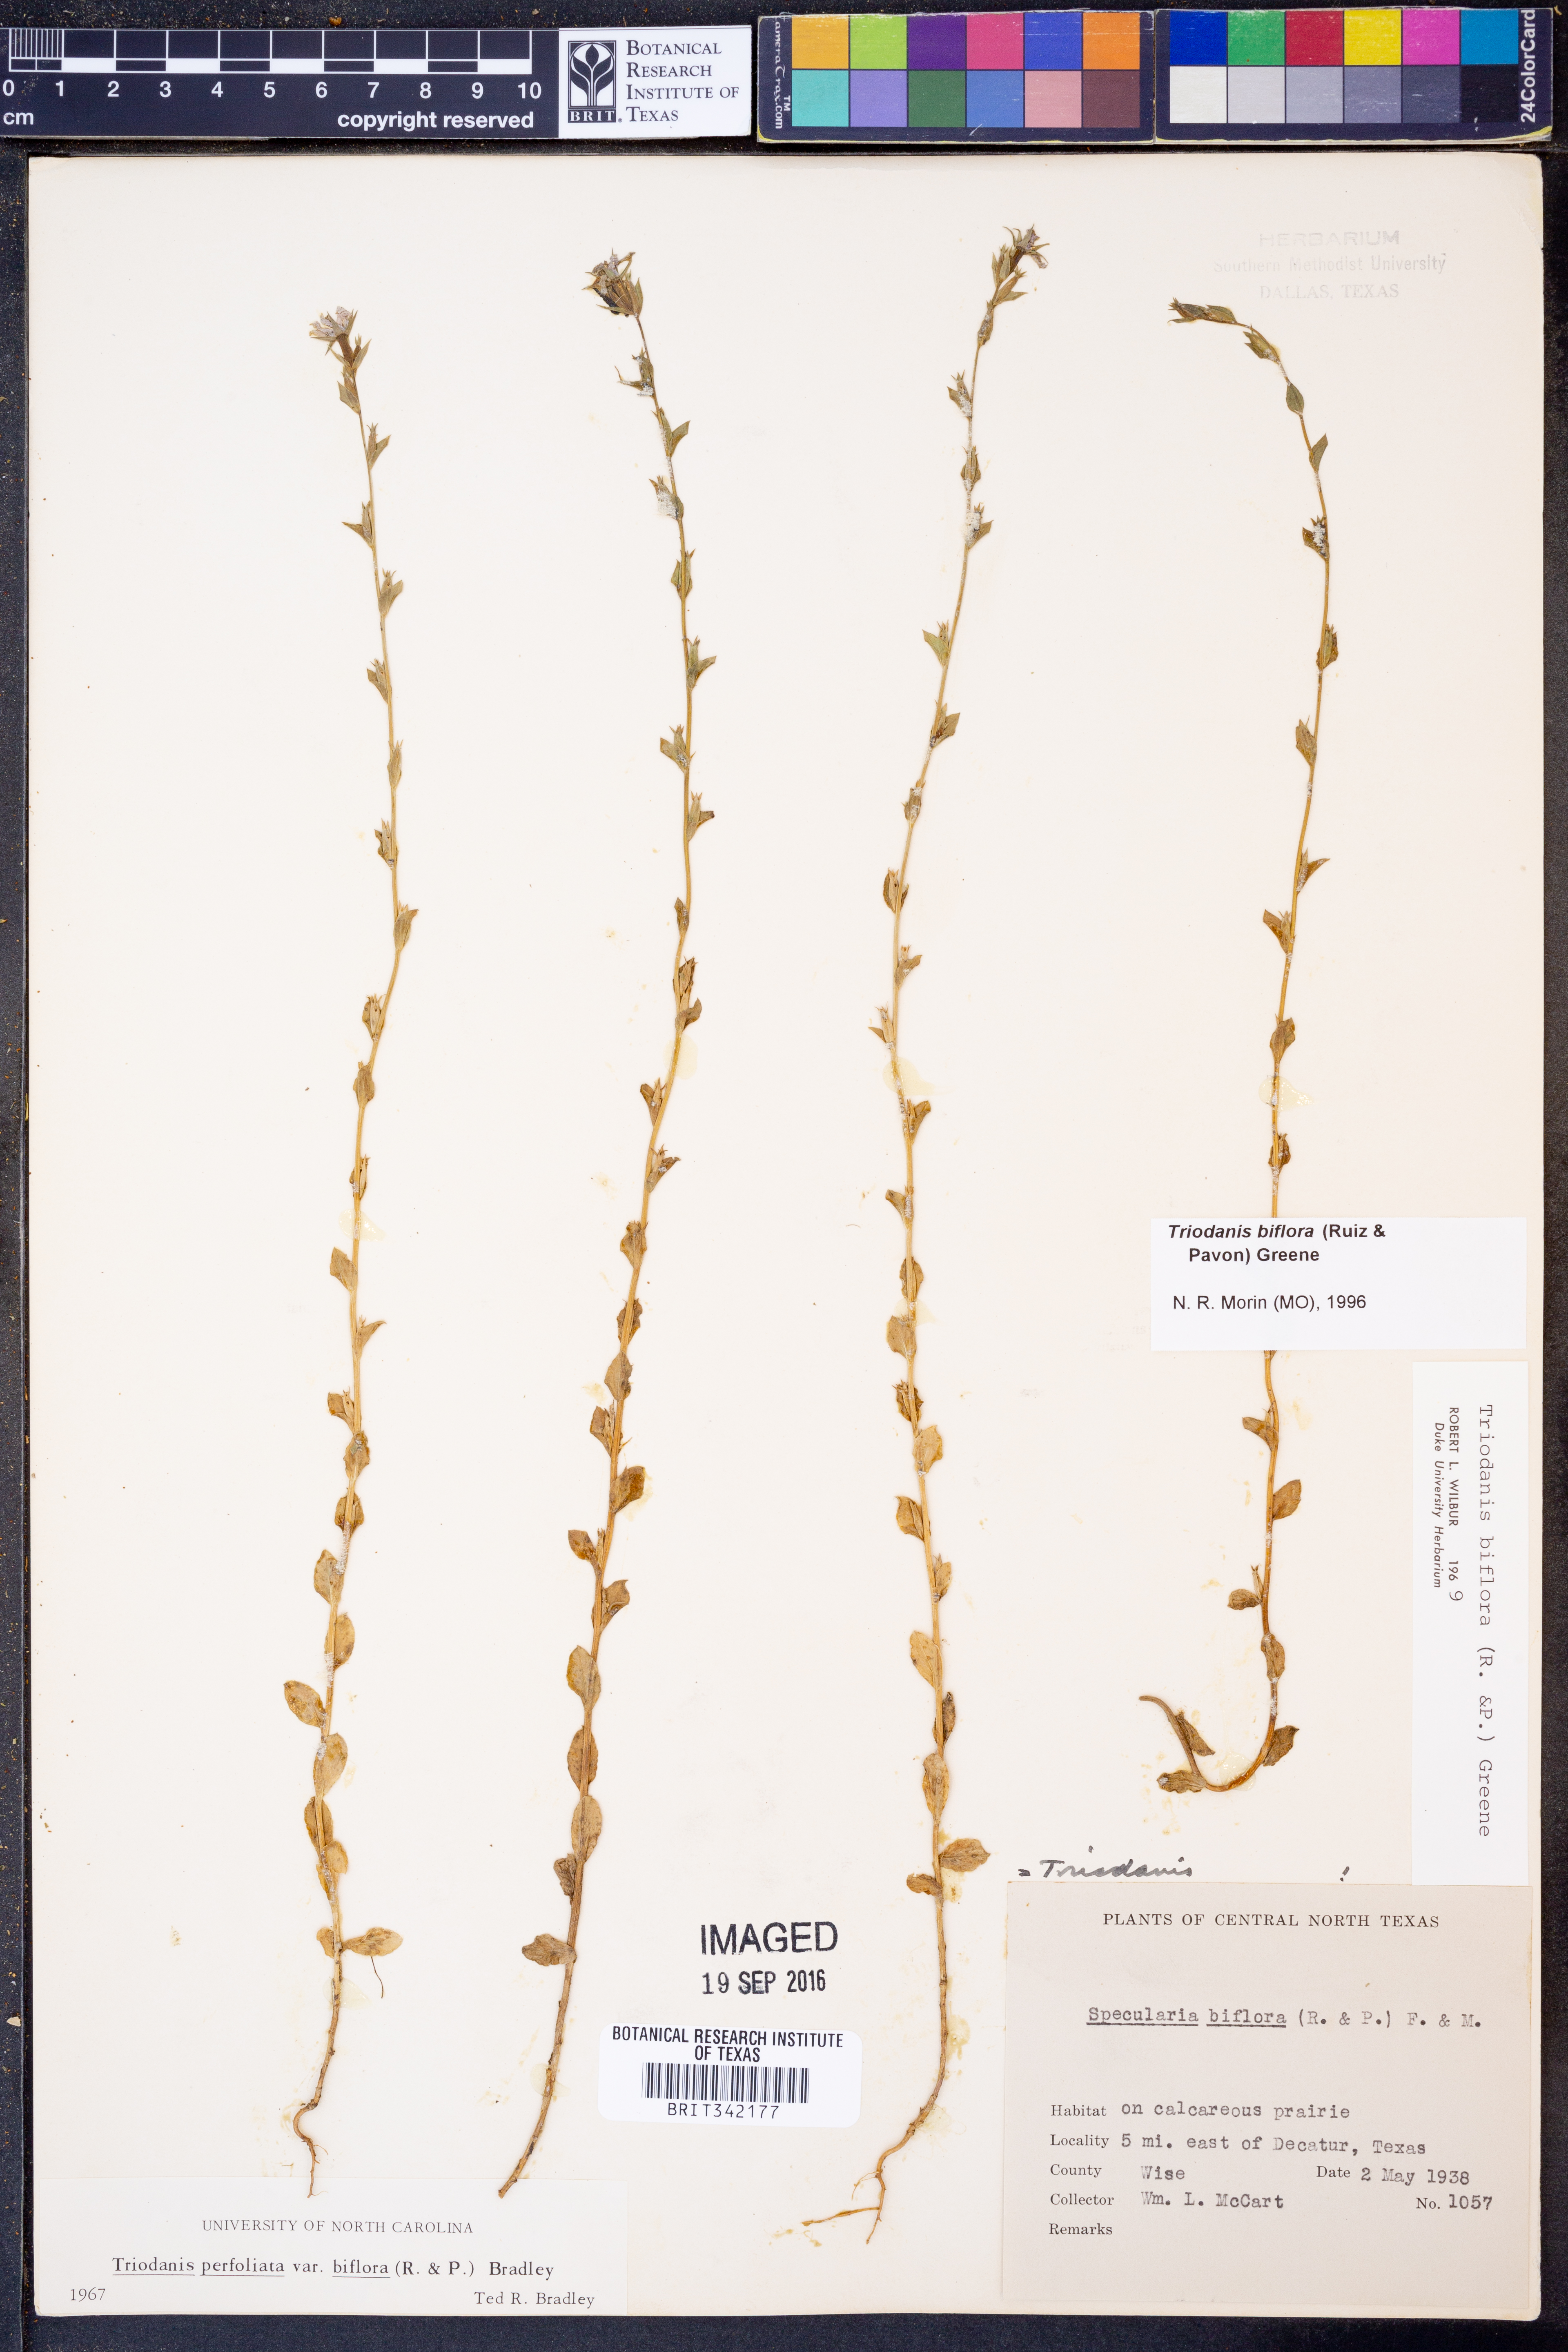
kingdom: Plantae
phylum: Tracheophyta
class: Magnoliopsida
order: Asterales
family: Campanulaceae
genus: Triodanis
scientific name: Triodanis perfoliata
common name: Clasping venus' looking-glass
